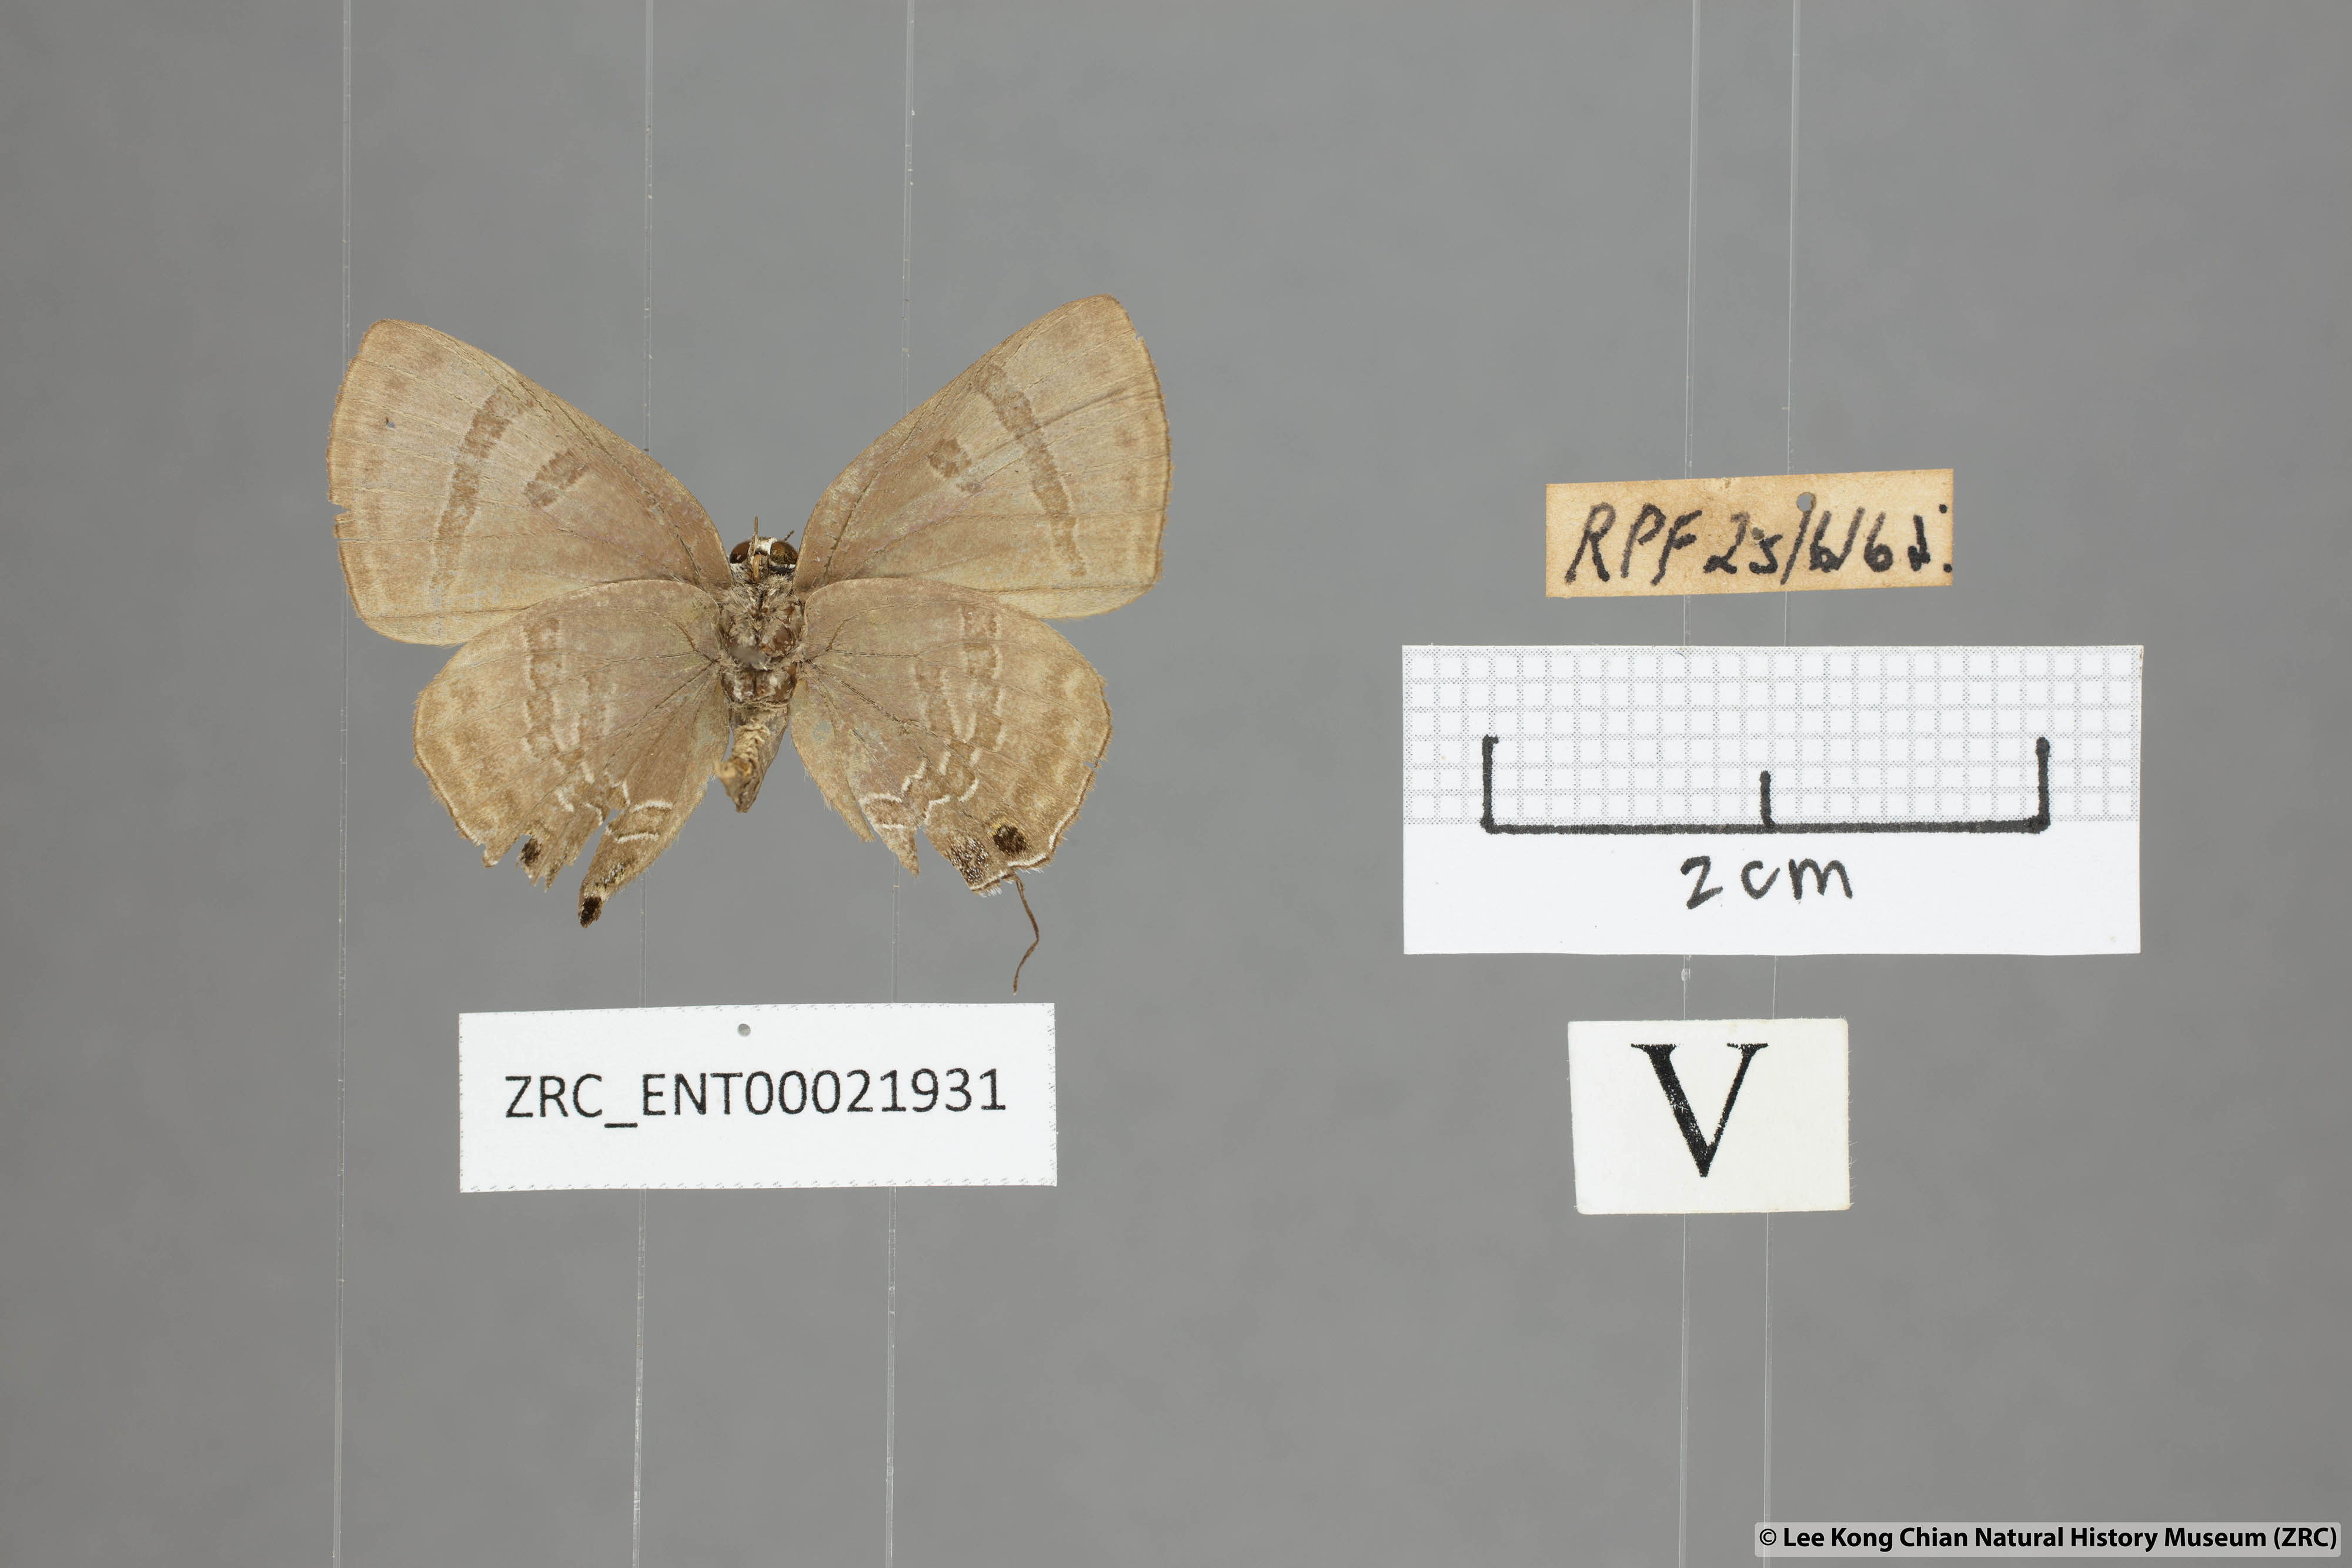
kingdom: Animalia
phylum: Arthropoda
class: Insecta
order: Lepidoptera
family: Lycaenidae
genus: Rapala
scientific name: Rapala varuna
